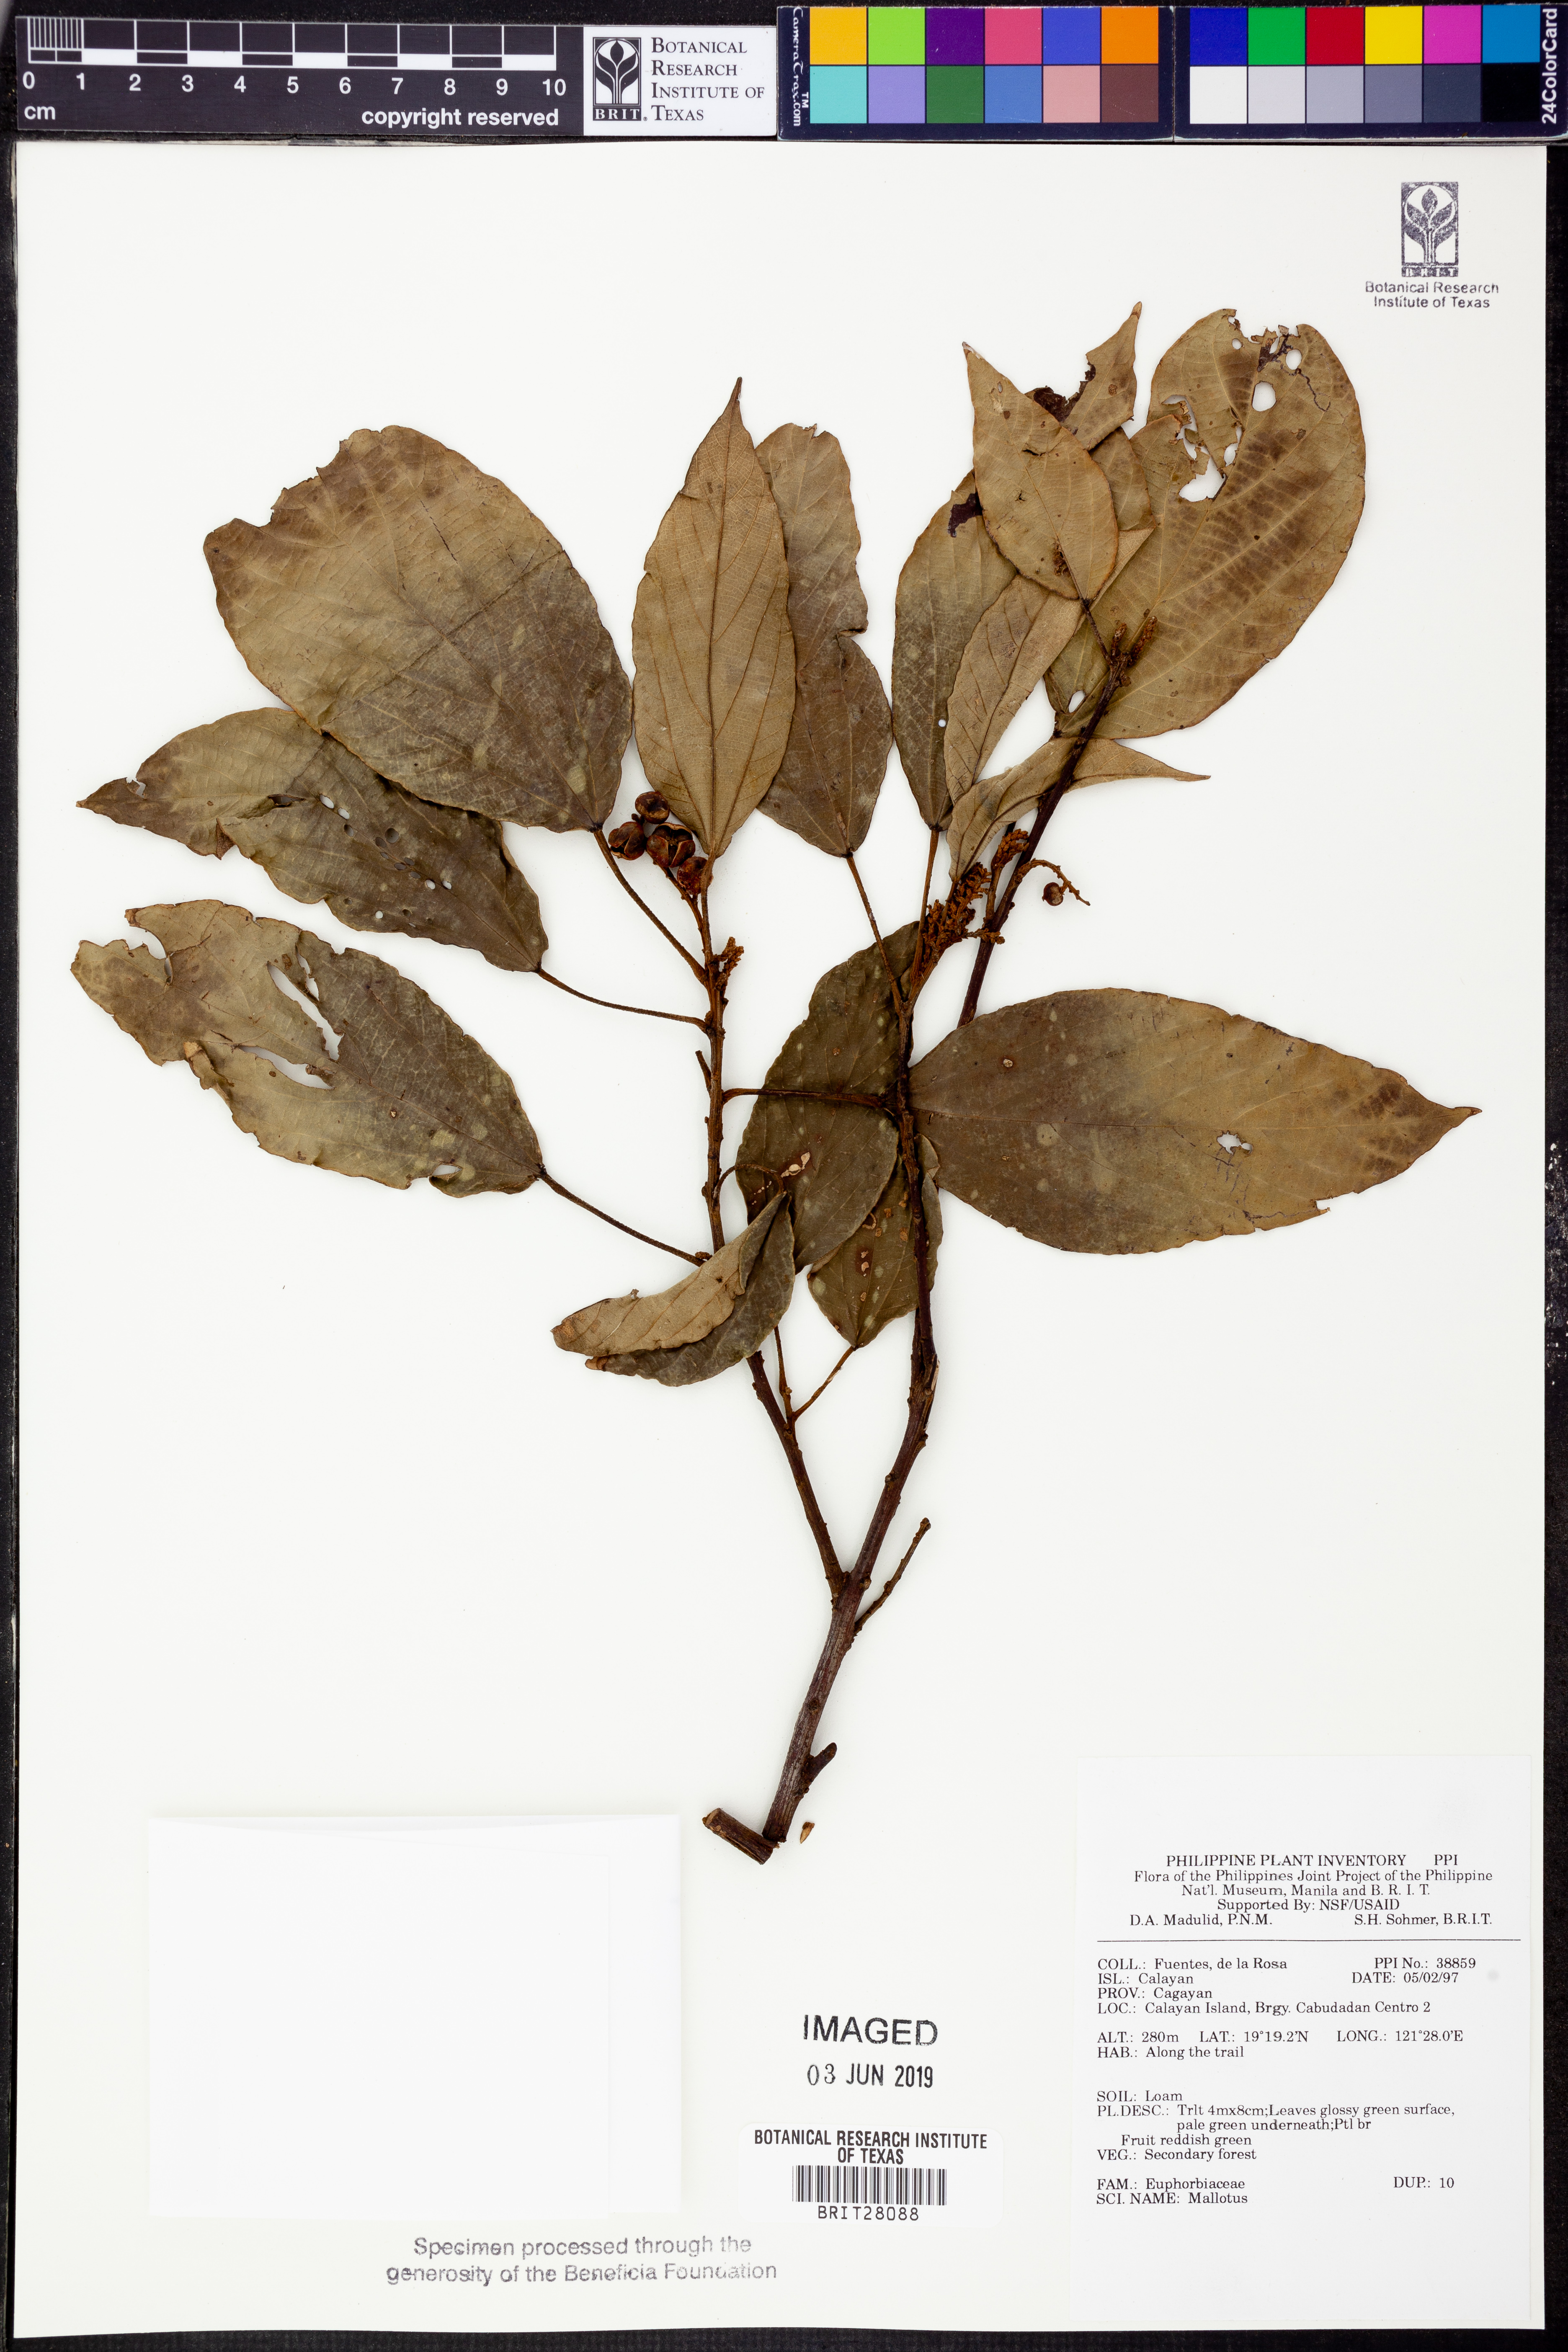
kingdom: Plantae
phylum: Tracheophyta
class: Magnoliopsida
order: Malpighiales
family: Euphorbiaceae
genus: Mallotus
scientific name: Mallotus
